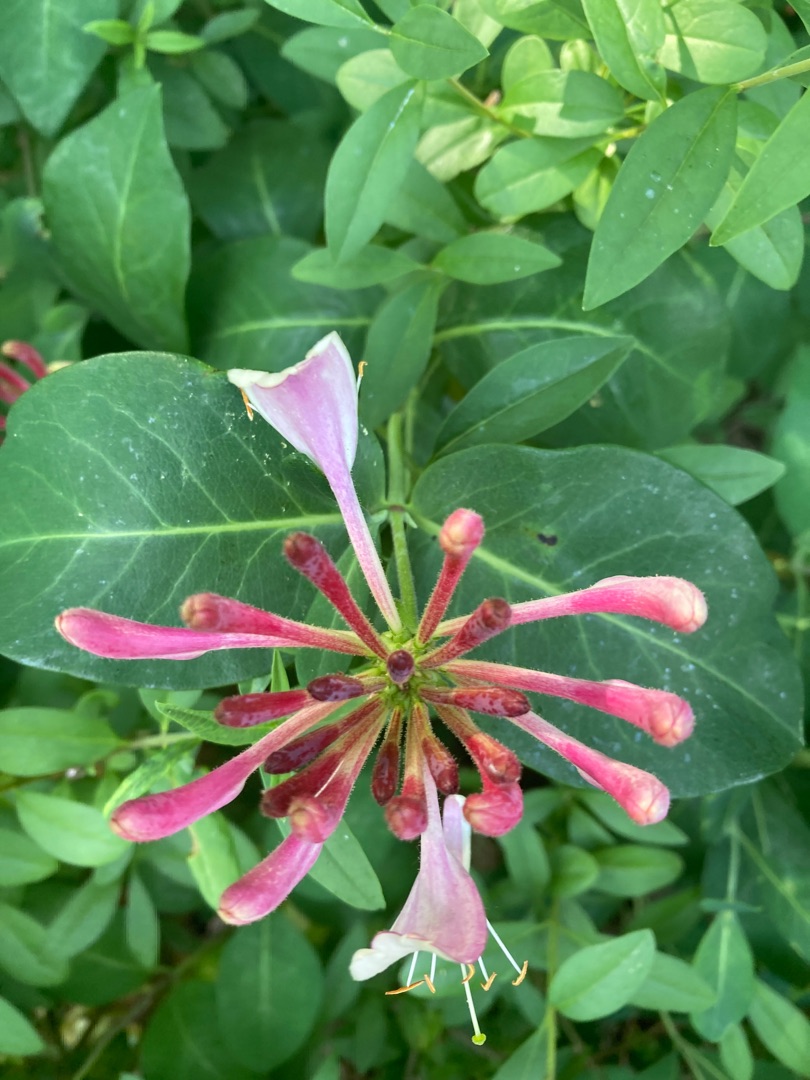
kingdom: Plantae
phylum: Tracheophyta
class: Magnoliopsida
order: Dipsacales
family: Caprifoliaceae
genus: Lonicera
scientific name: Lonicera periclymenum
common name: Almindelig gedeblad
